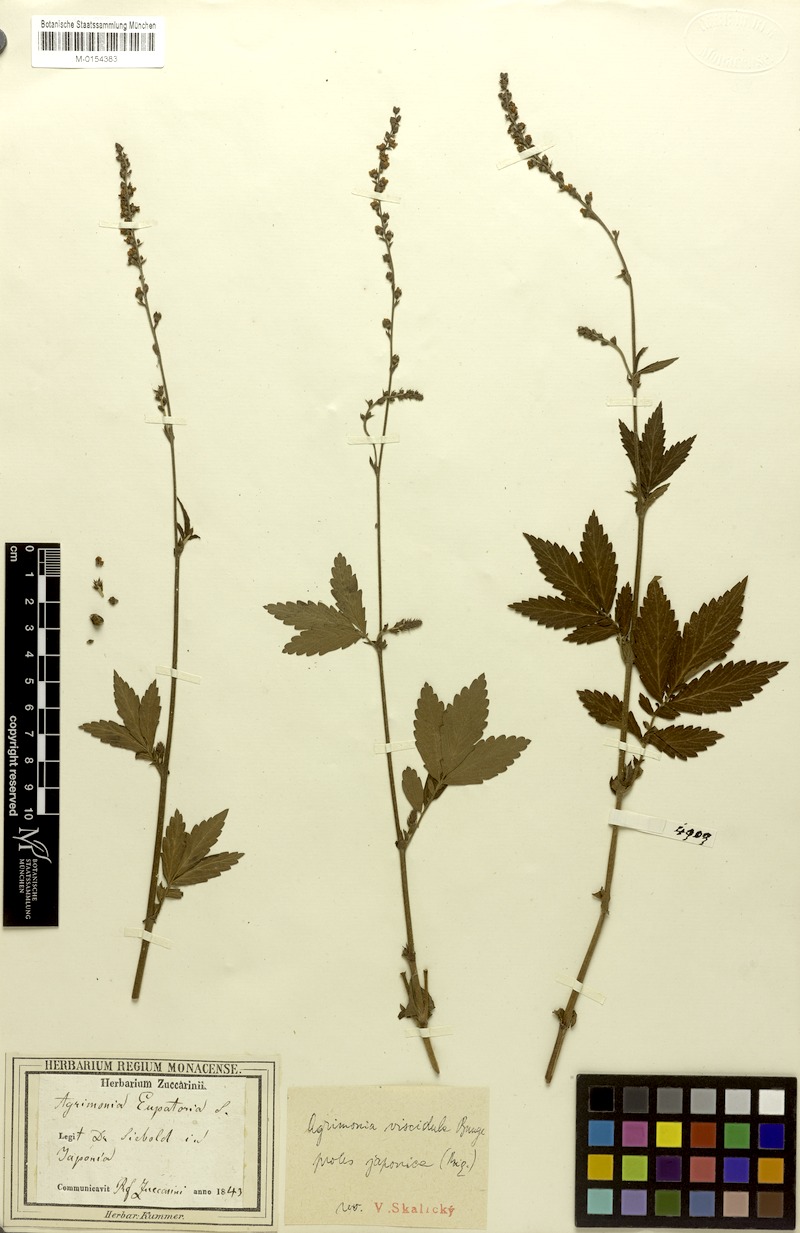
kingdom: Plantae
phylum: Tracheophyta
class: Magnoliopsida
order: Rosales
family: Rosaceae
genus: Agrimonia
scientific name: Agrimonia pilosa
